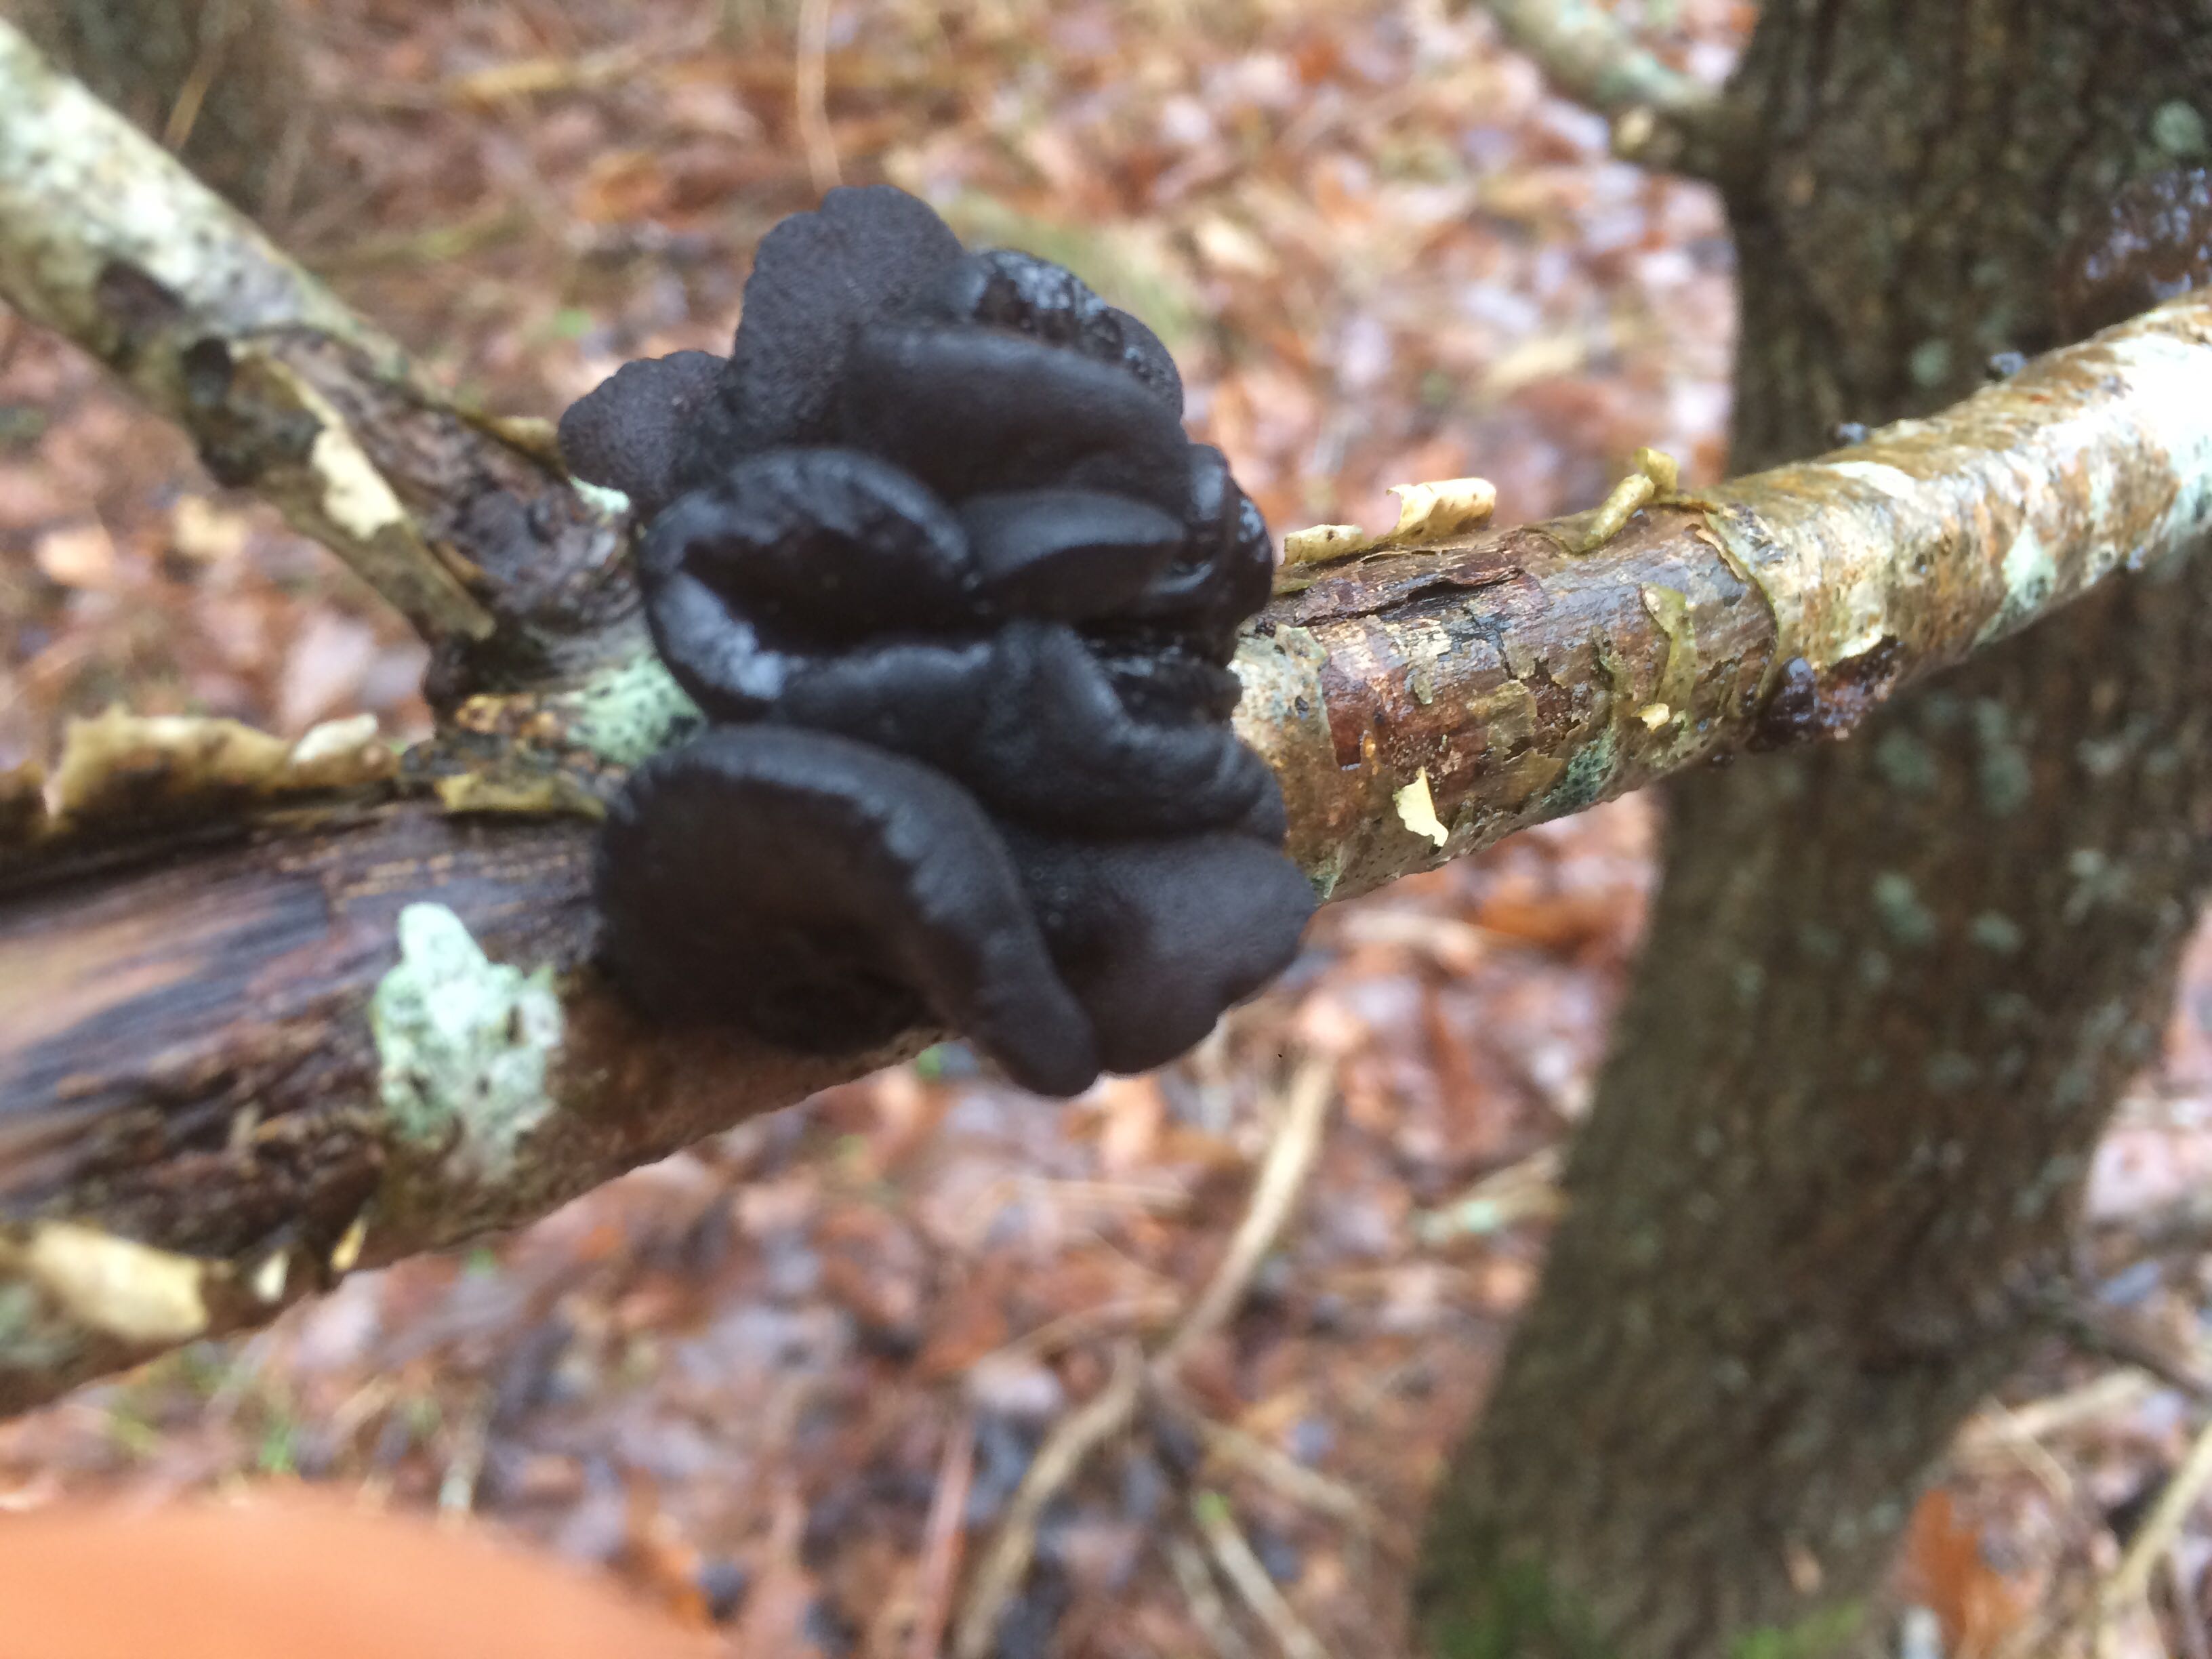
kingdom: Fungi
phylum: Basidiomycota
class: Agaricomycetes
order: Auriculariales
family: Auriculariaceae
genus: Exidia
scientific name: Exidia glandulosa
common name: ege-bævretop
